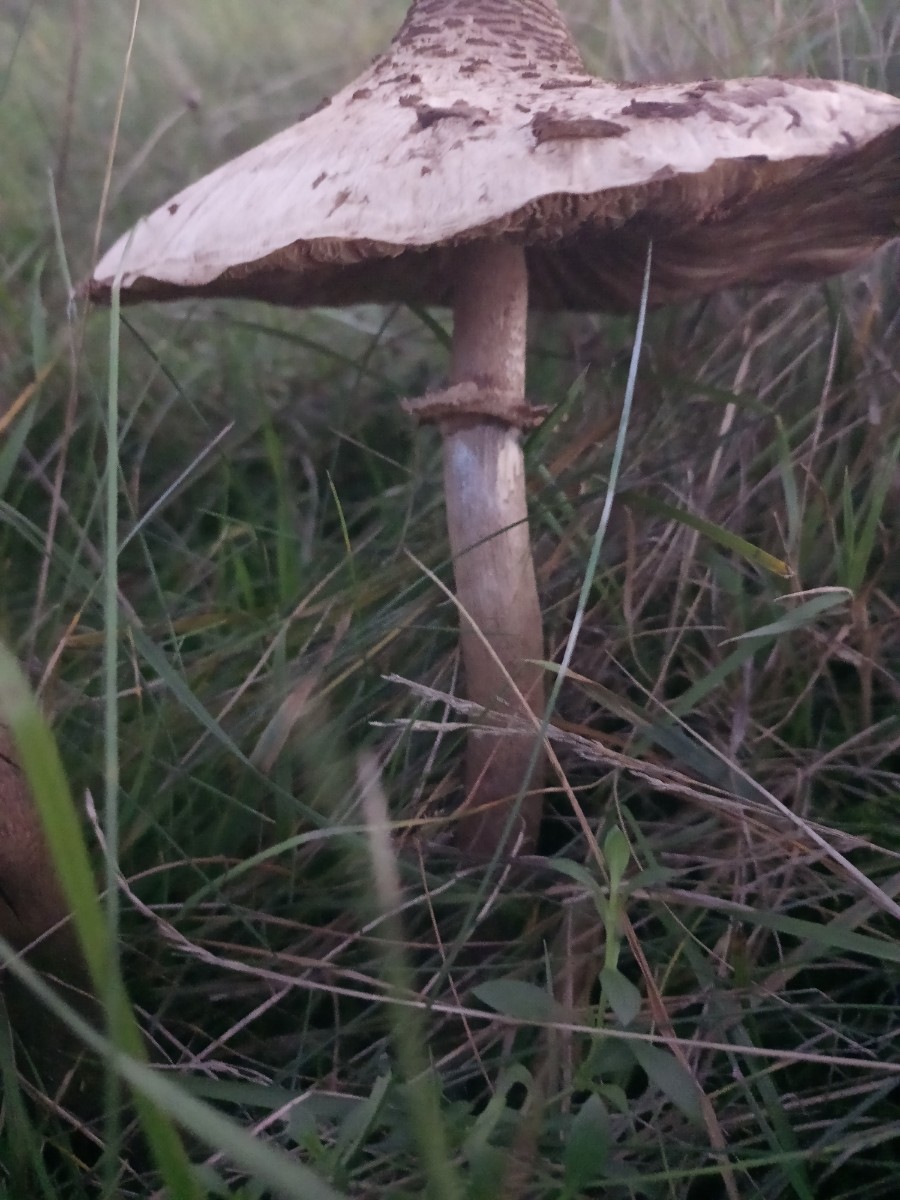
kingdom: Fungi
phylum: Basidiomycota
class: Agaricomycetes
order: Agaricales
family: Agaricaceae
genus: Macrolepiota
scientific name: Macrolepiota
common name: kæmpeparasolhat
